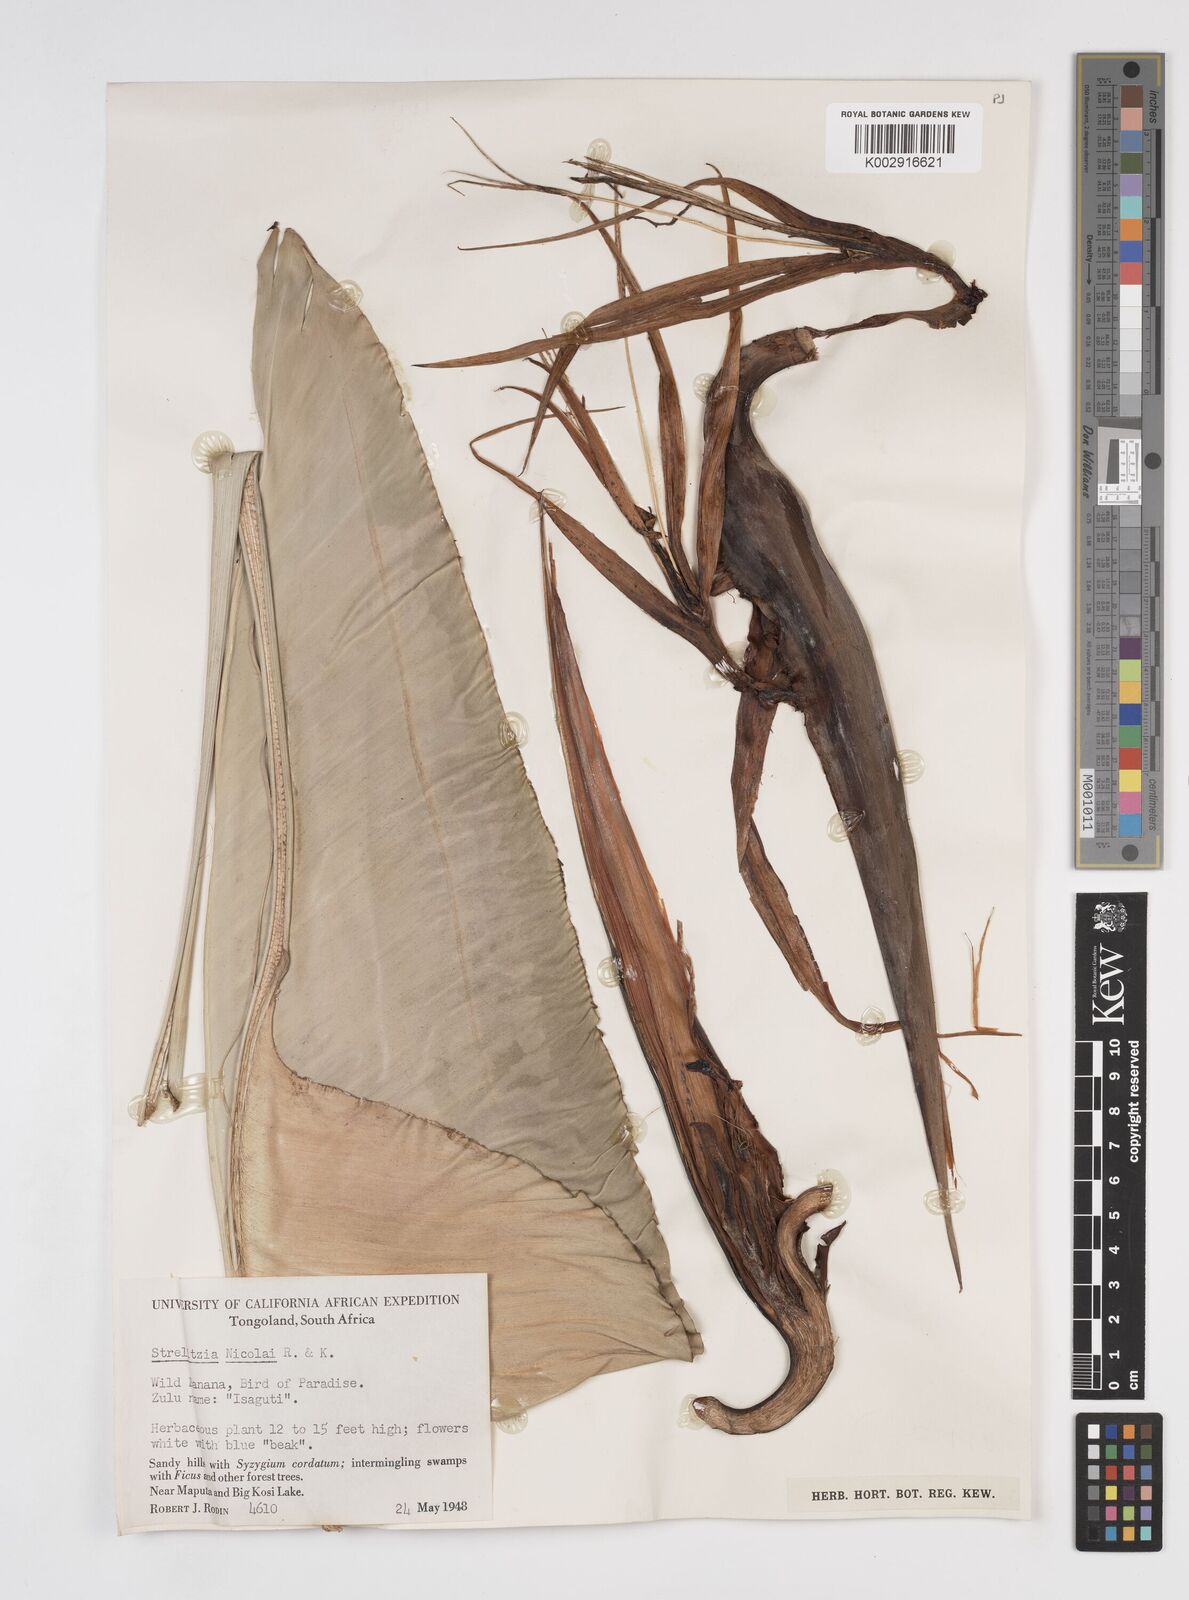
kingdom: Plantae
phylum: Tracheophyta
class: Liliopsida
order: Zingiberales
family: Strelitziaceae
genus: Strelitzia
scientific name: Strelitzia nicolai
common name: Bird-of-paradise tree
